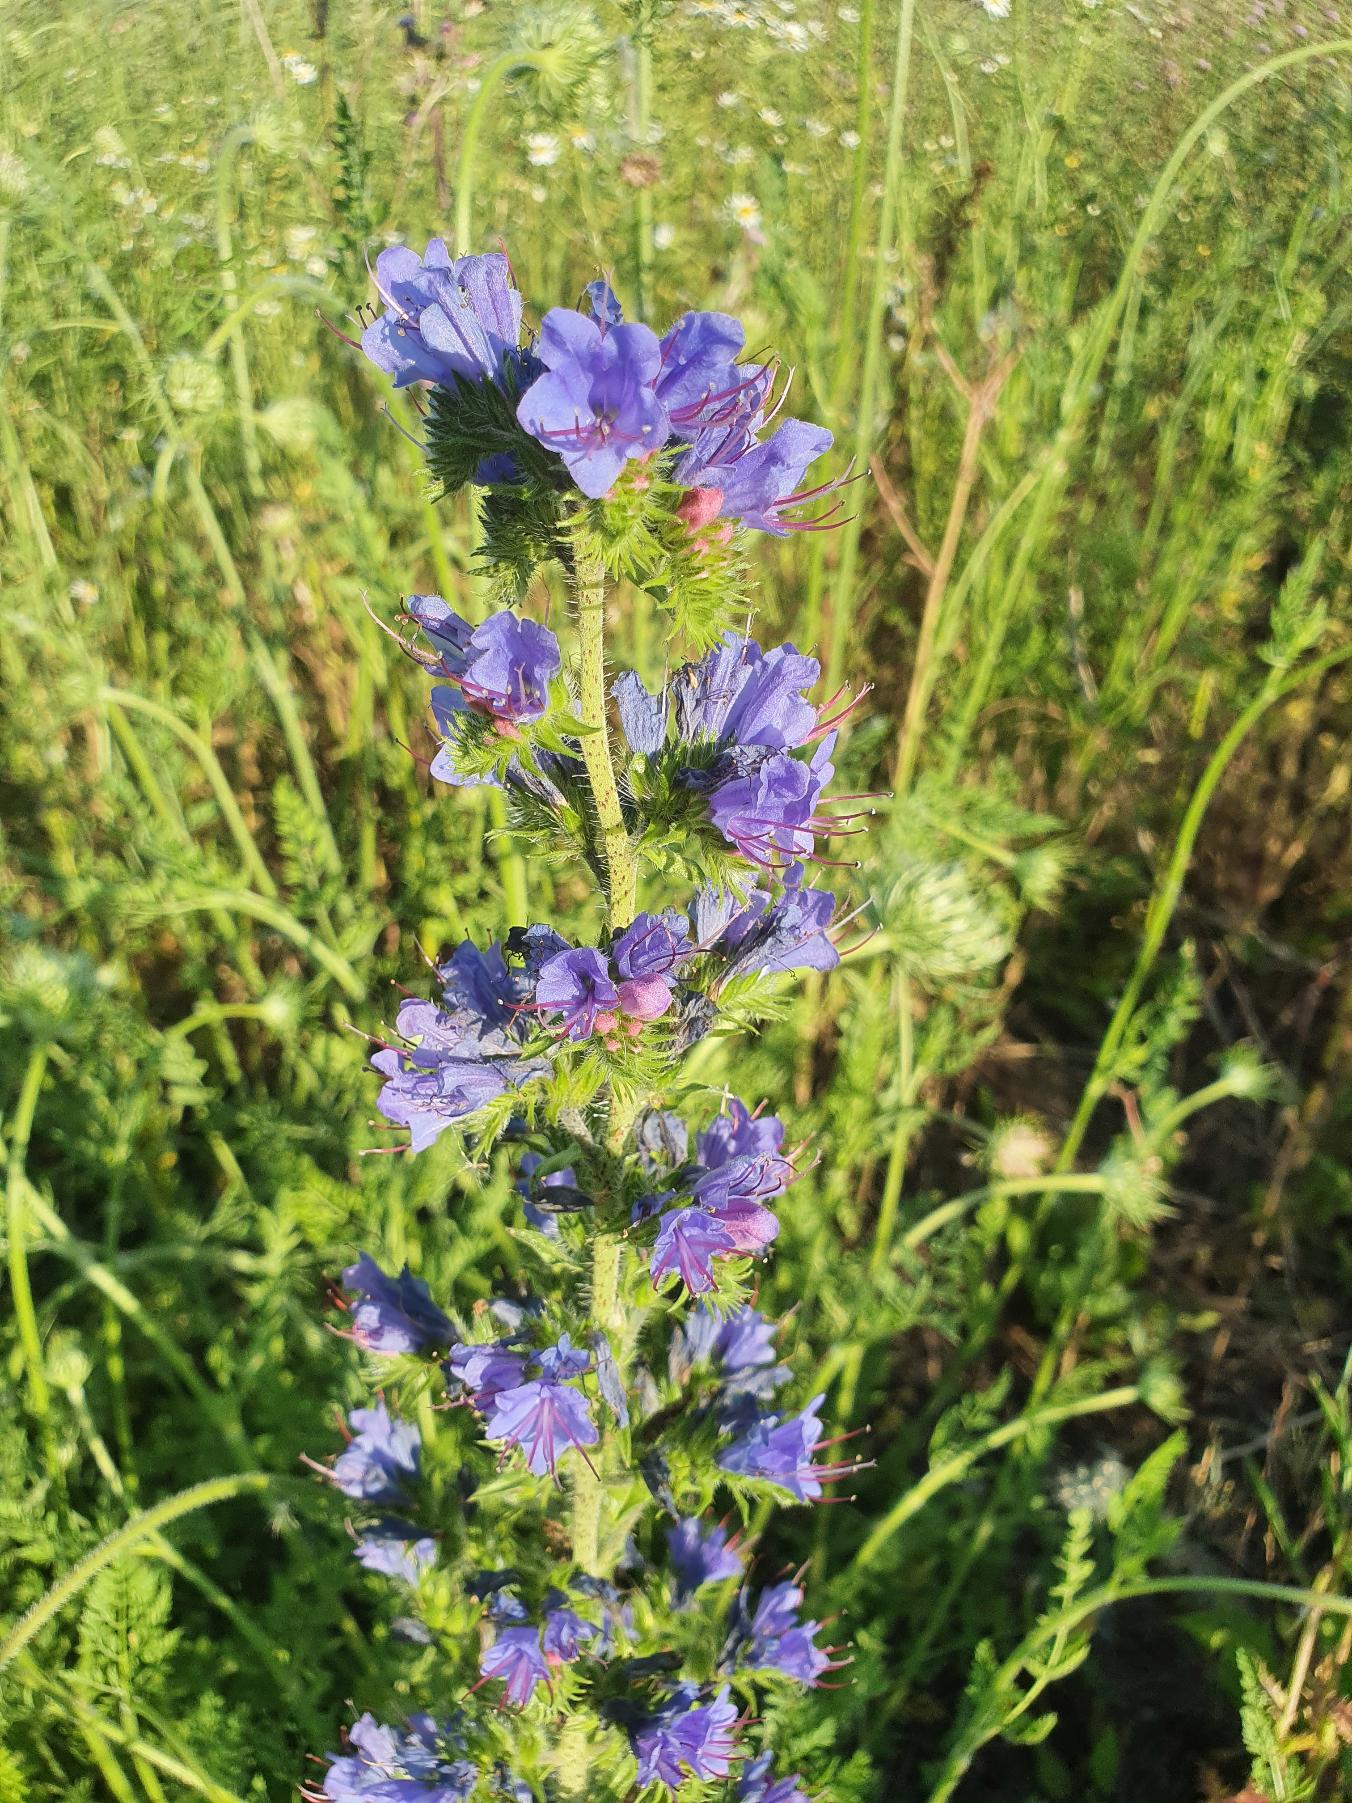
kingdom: Plantae
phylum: Tracheophyta
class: Magnoliopsida
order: Boraginales
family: Boraginaceae
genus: Echium
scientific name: Echium vulgare
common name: Slangehoved
